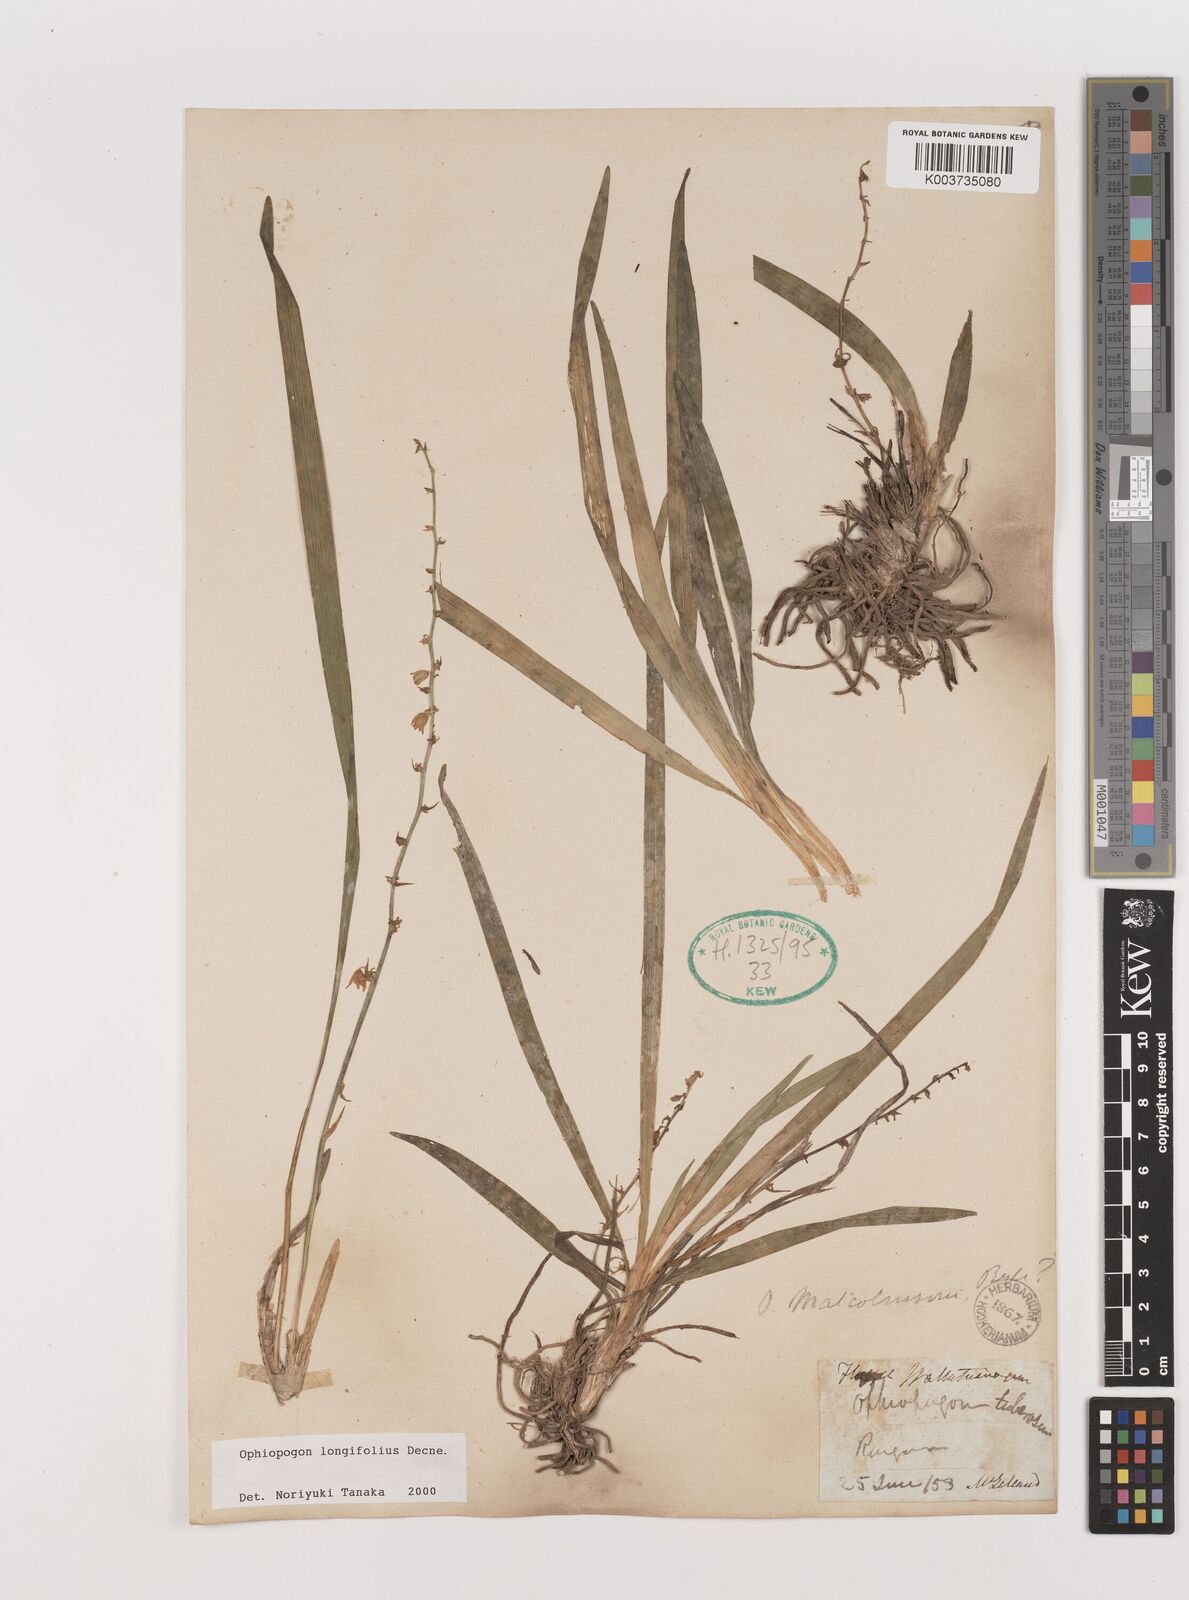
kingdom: Plantae
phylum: Tracheophyta
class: Liliopsida
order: Asparagales
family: Asparagaceae
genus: Ophiopogon
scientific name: Ophiopogon longifolius
